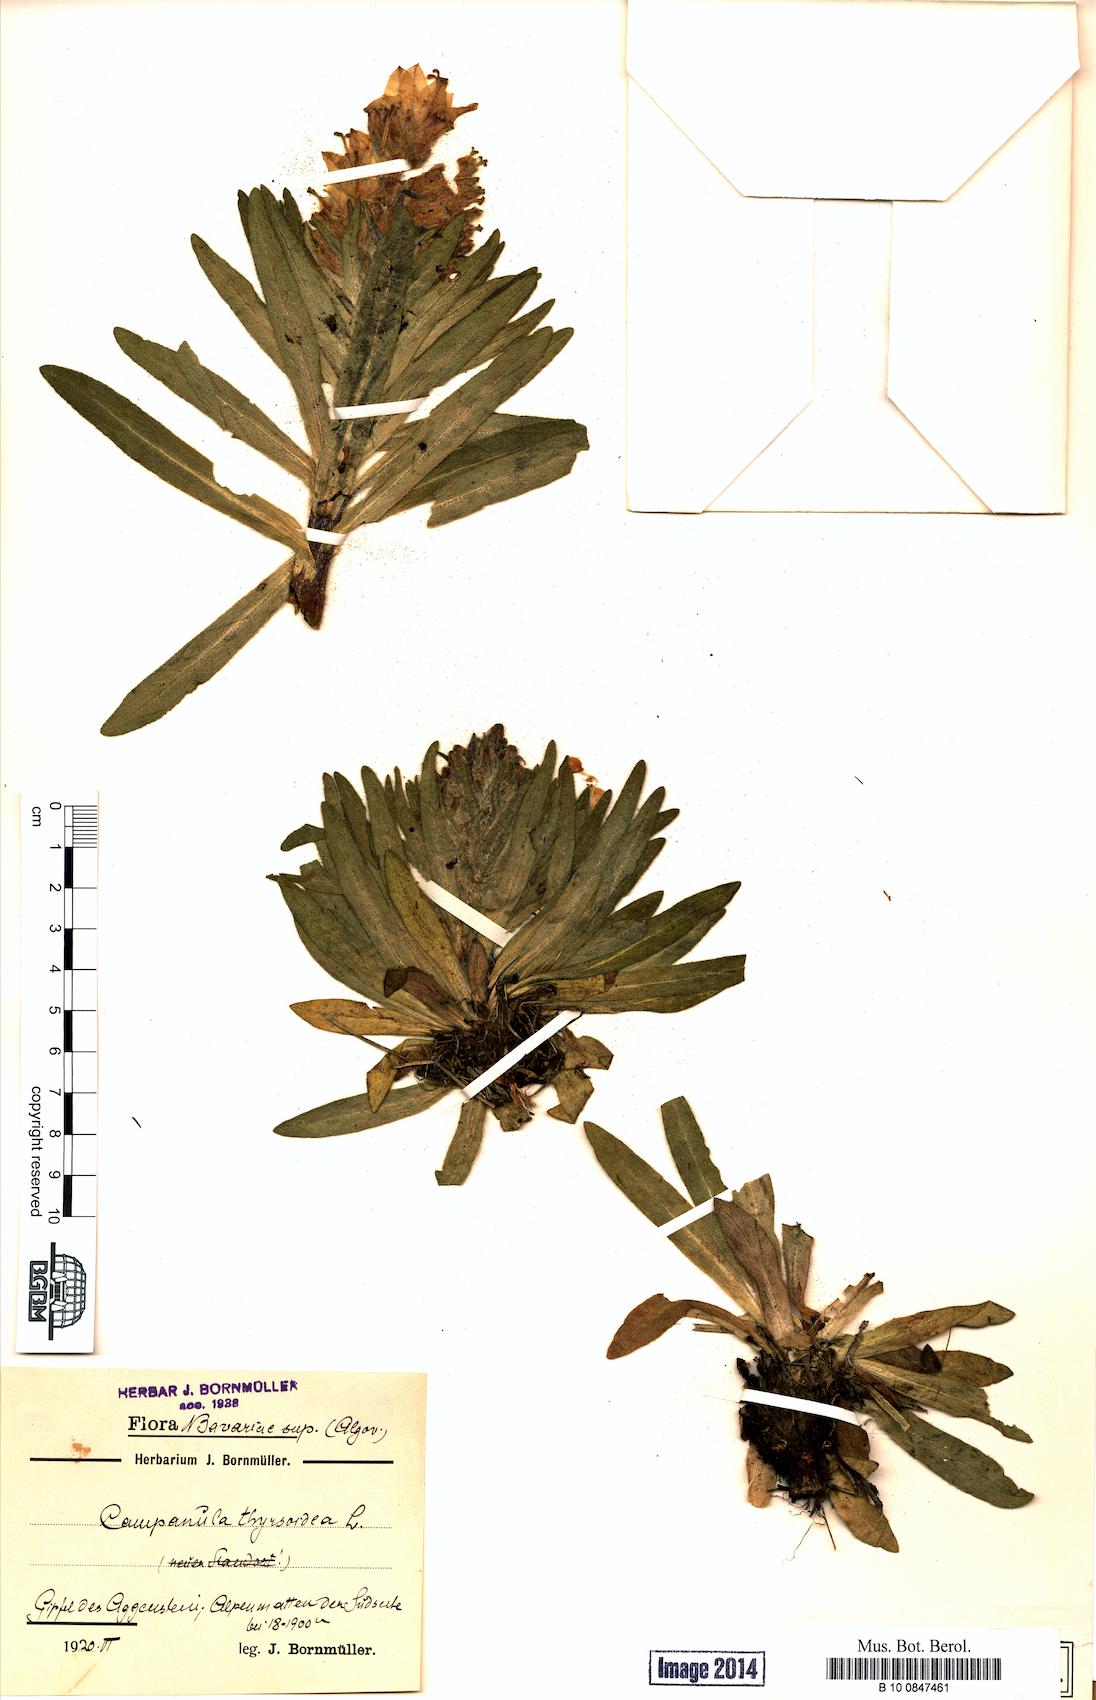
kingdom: Plantae
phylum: Tracheophyta
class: Magnoliopsida
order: Asterales
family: Campanulaceae
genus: Campanula
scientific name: Campanula thyrsoides
